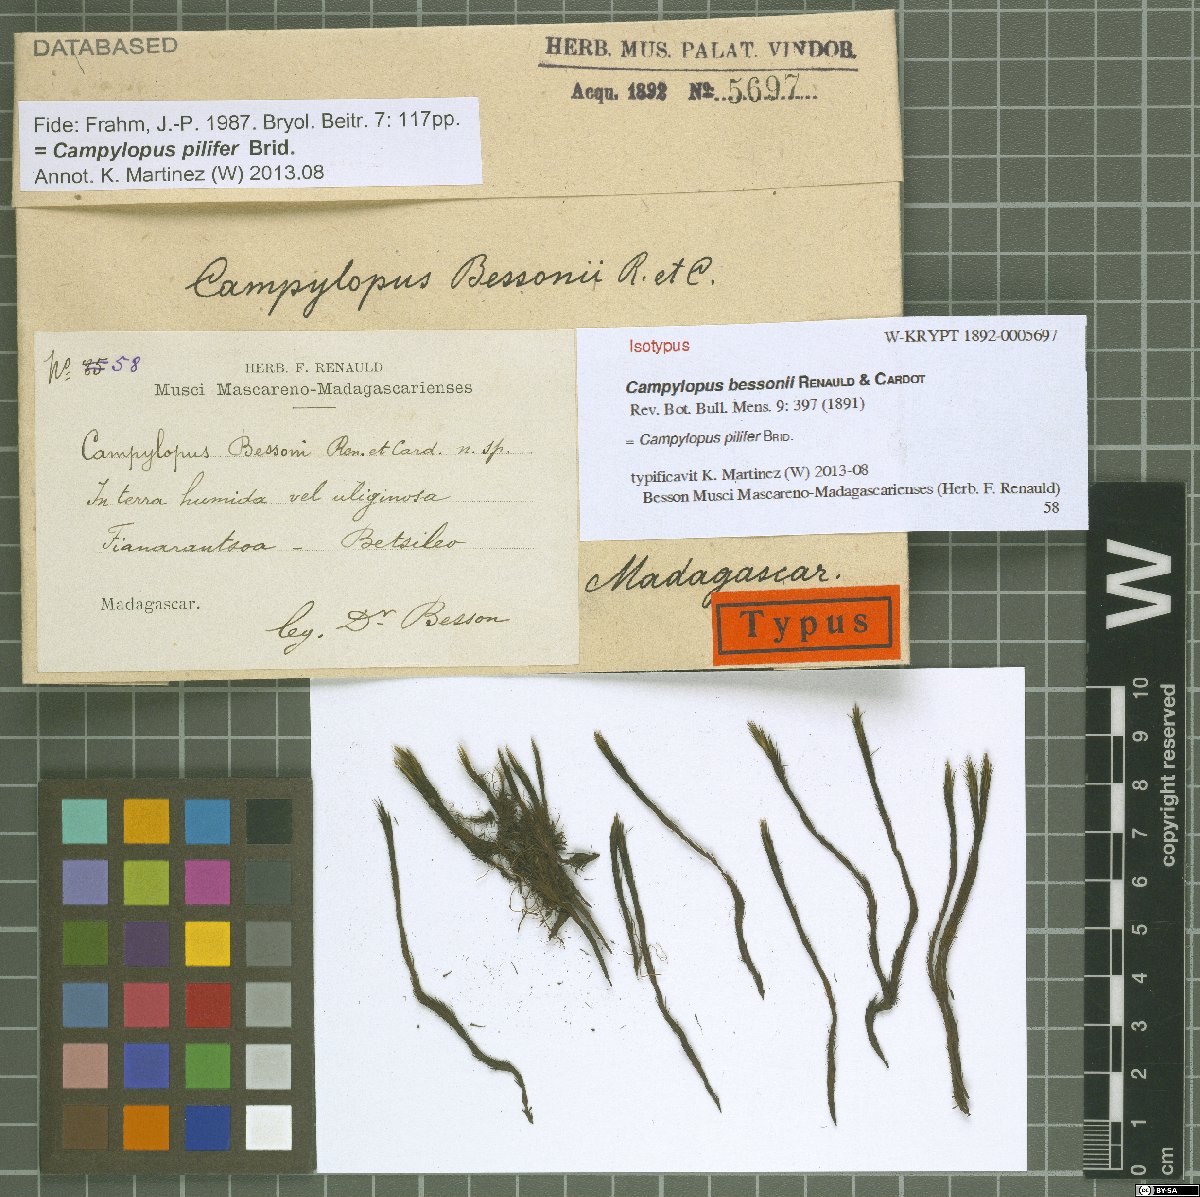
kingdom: Plantae
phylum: Bryophyta
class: Bryopsida
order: Dicranales
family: Leucobryaceae
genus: Campylopus
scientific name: Campylopus pilifer
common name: Campylopus moss
